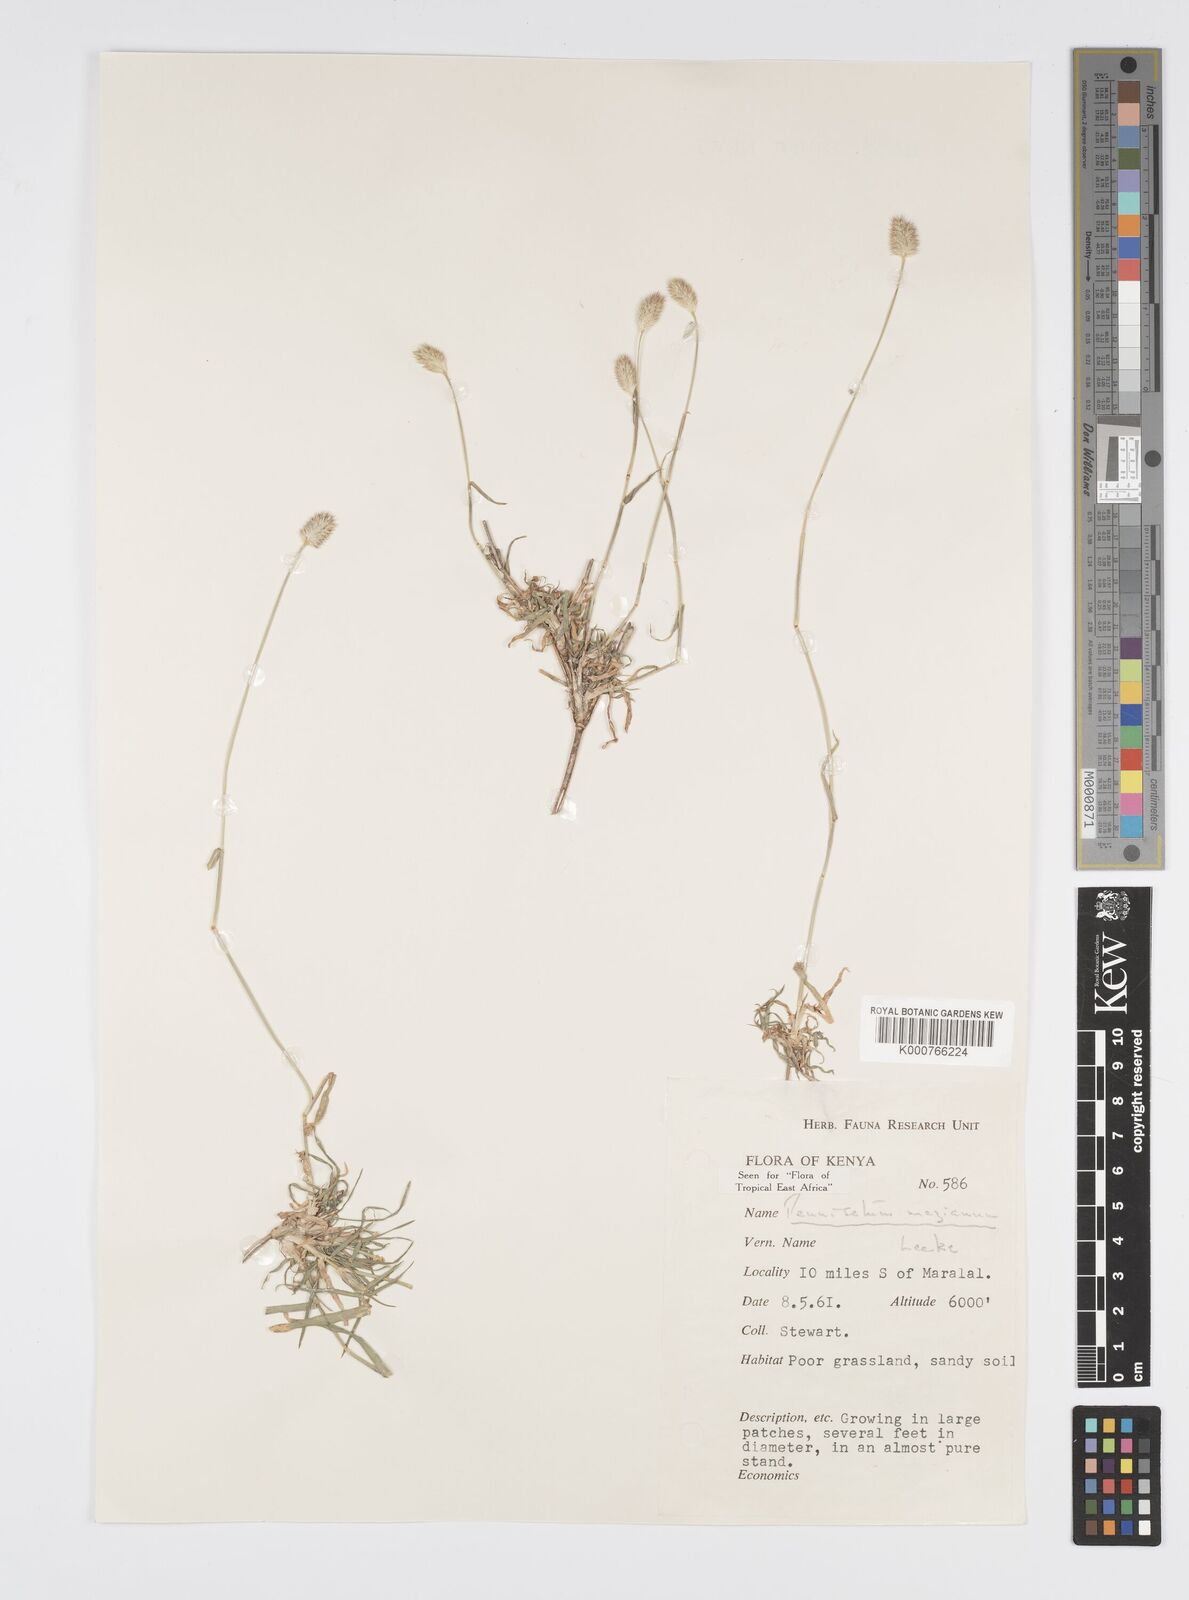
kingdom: Plantae
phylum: Tracheophyta
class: Liliopsida
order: Poales
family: Poaceae
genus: Cenchrus
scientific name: Cenchrus mezianus
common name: Bamboo grass
